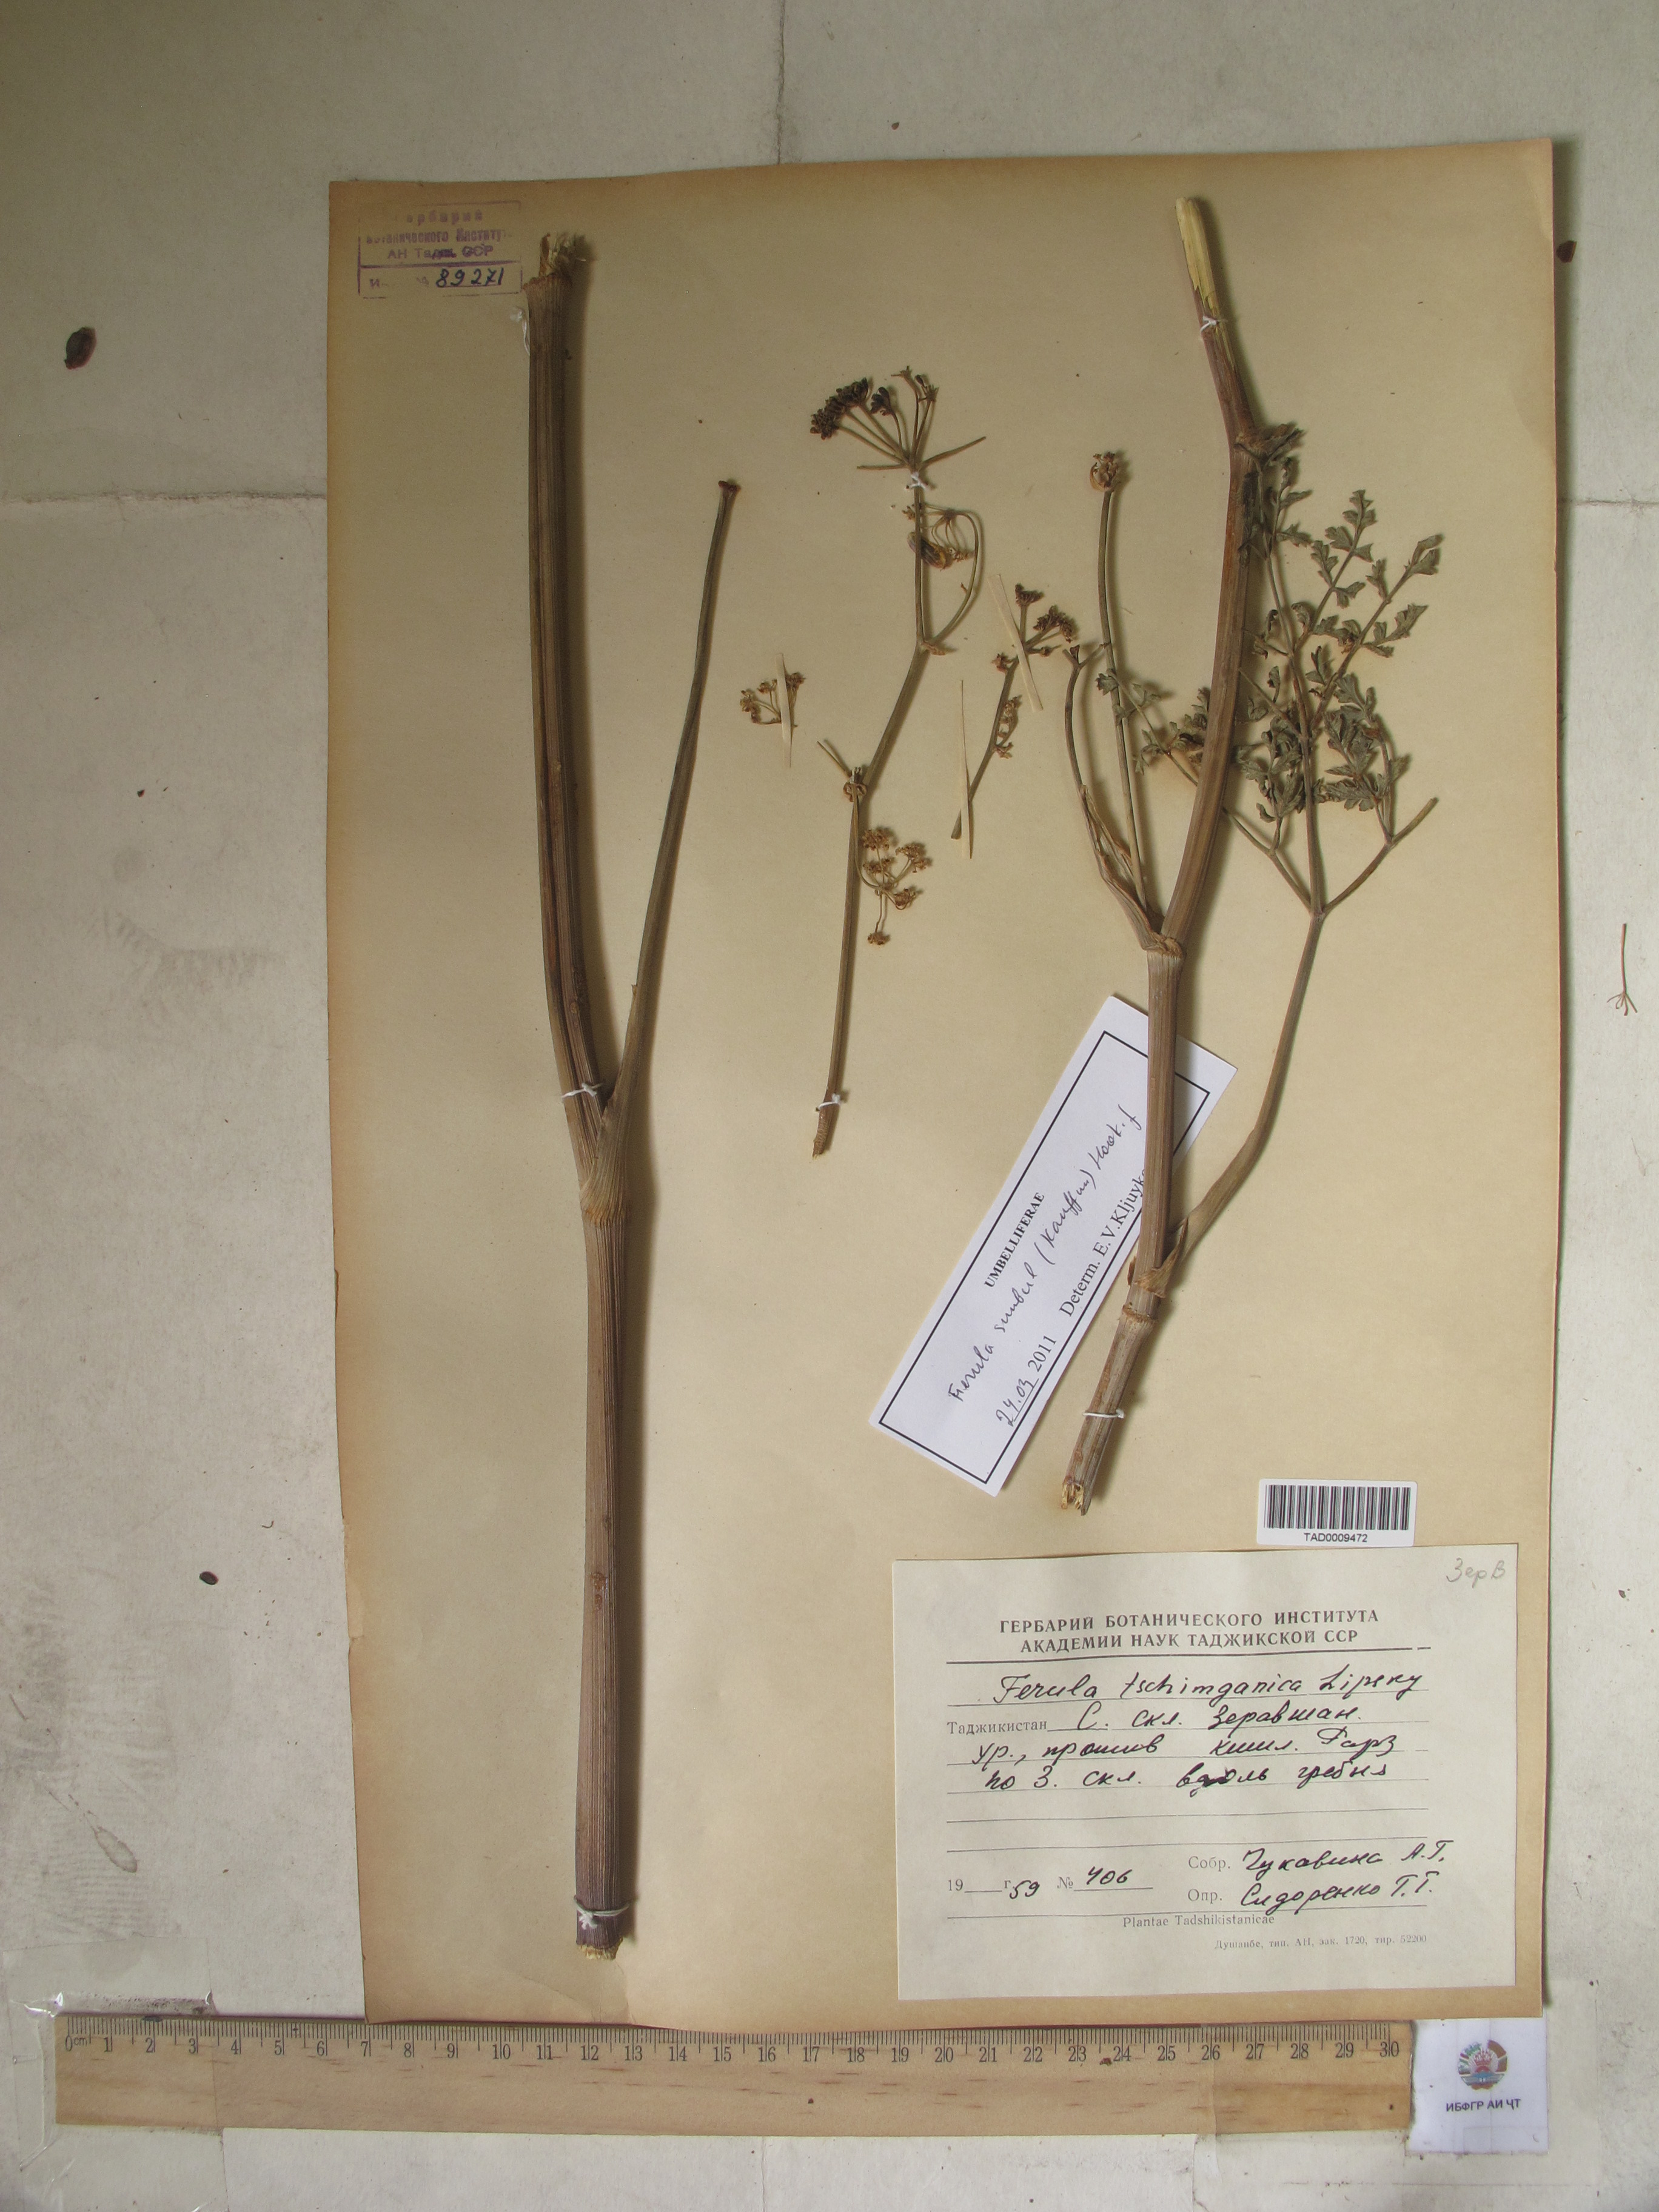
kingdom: Plantae
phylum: Tracheophyta
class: Magnoliopsida
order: Apiales
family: Apiaceae
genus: Ferula
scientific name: Ferula moschata
